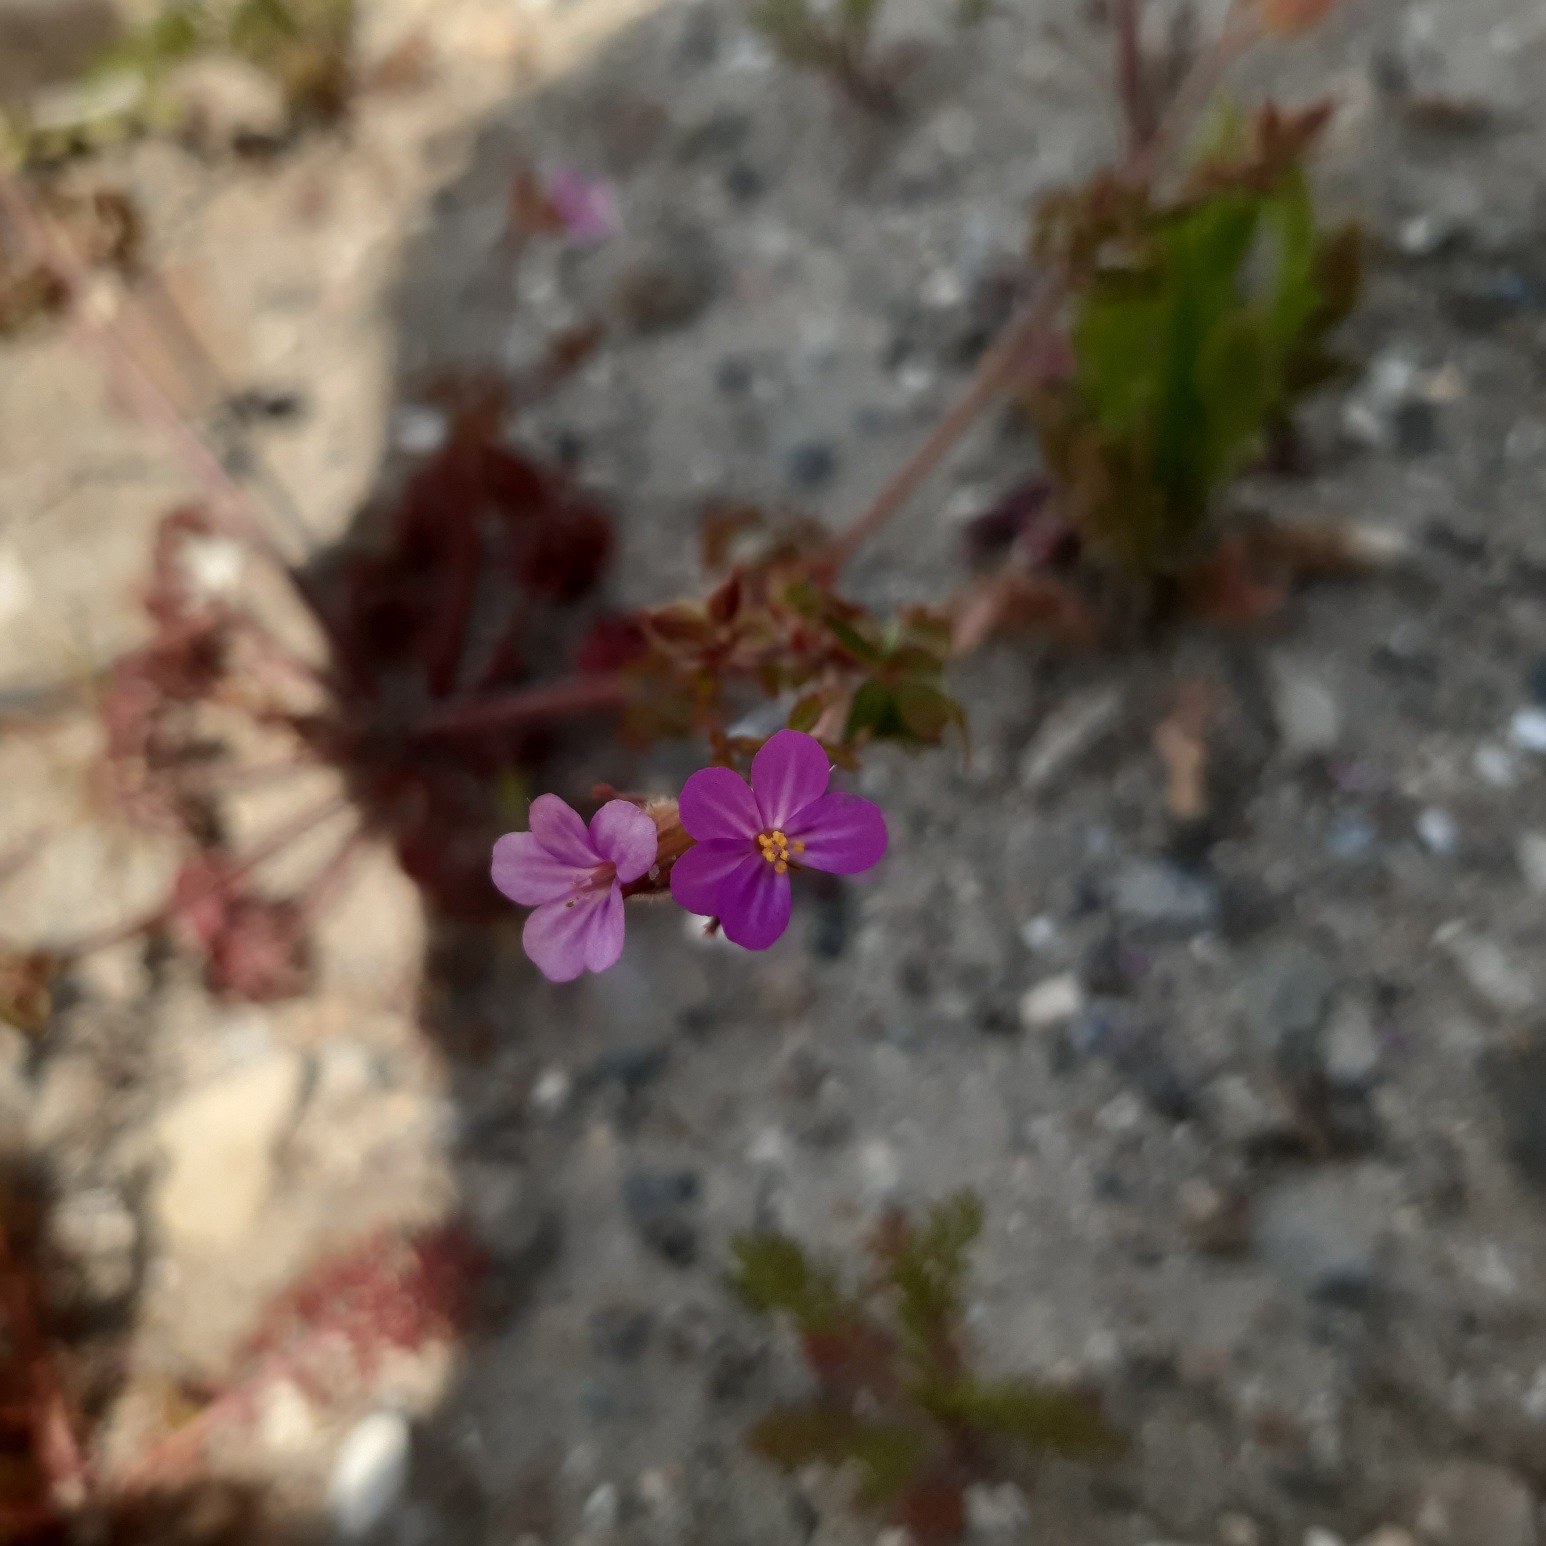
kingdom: Plantae
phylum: Tracheophyta
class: Magnoliopsida
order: Geraniales
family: Geraniaceae
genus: Geranium
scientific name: Geranium purpureum
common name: Purpur-storkenæb
